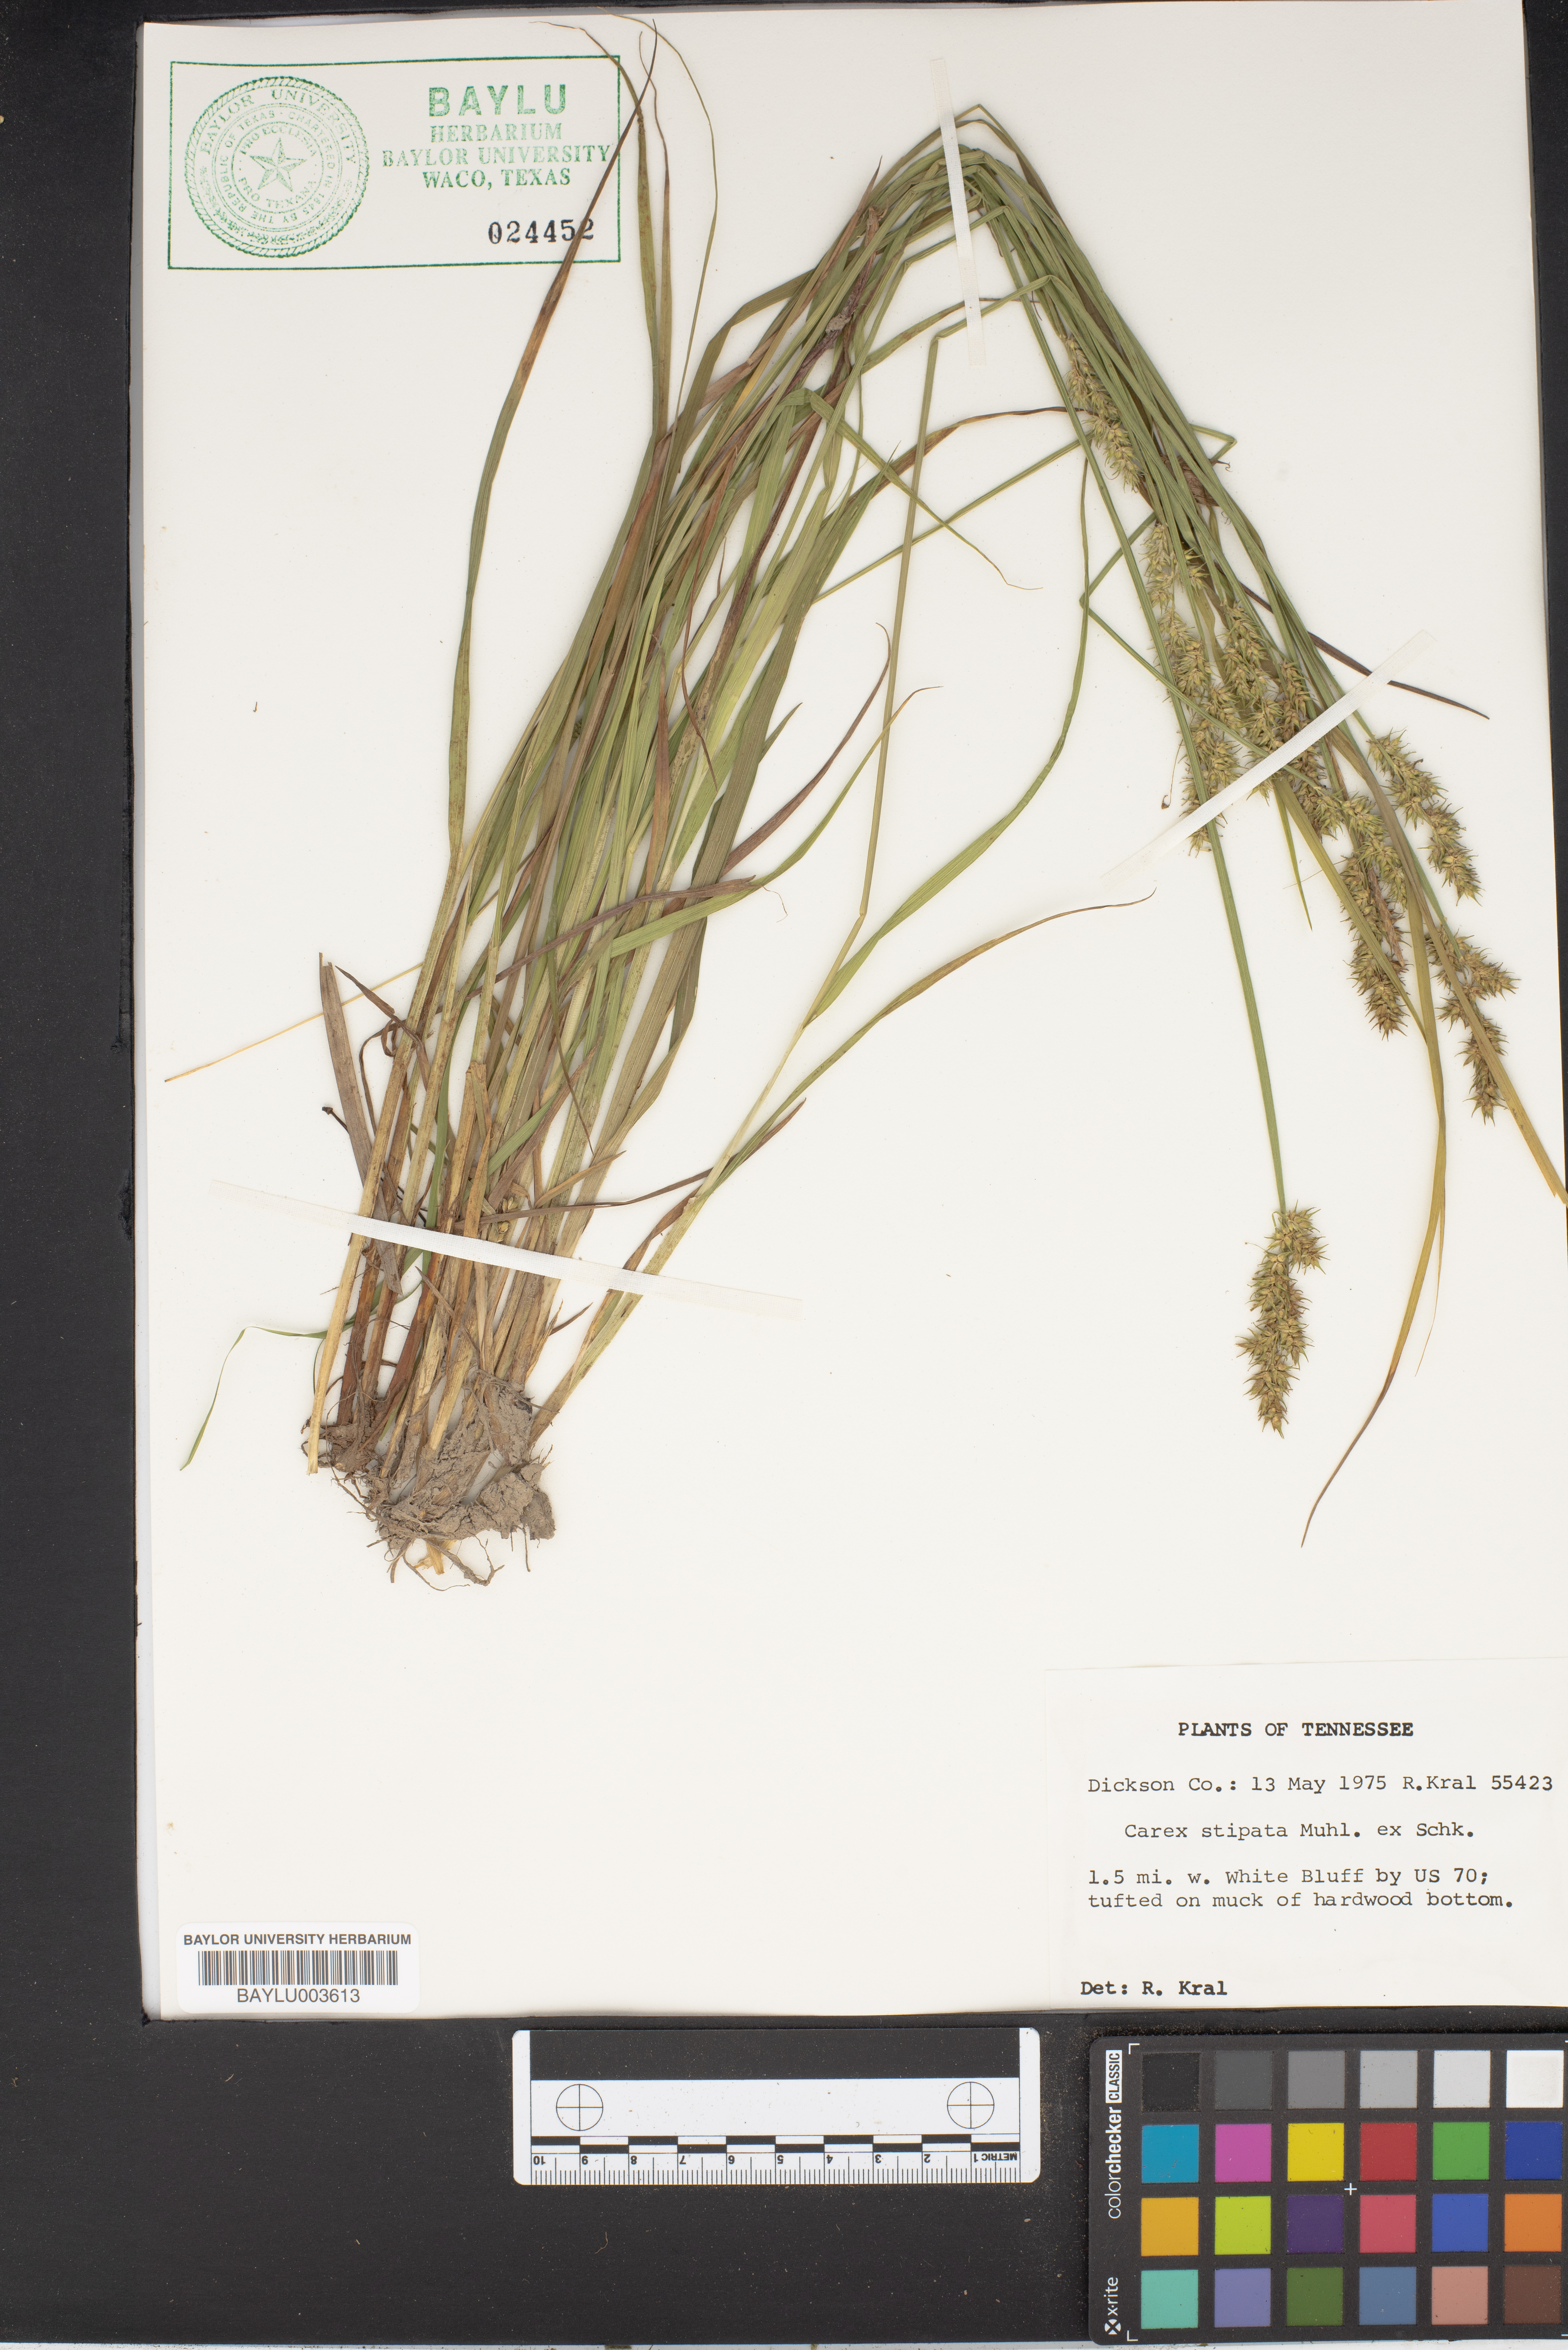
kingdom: Plantae
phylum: Tracheophyta
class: Liliopsida
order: Poales
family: Cyperaceae
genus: Carex
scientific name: Carex stipata
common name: Awl-fruited sedge
